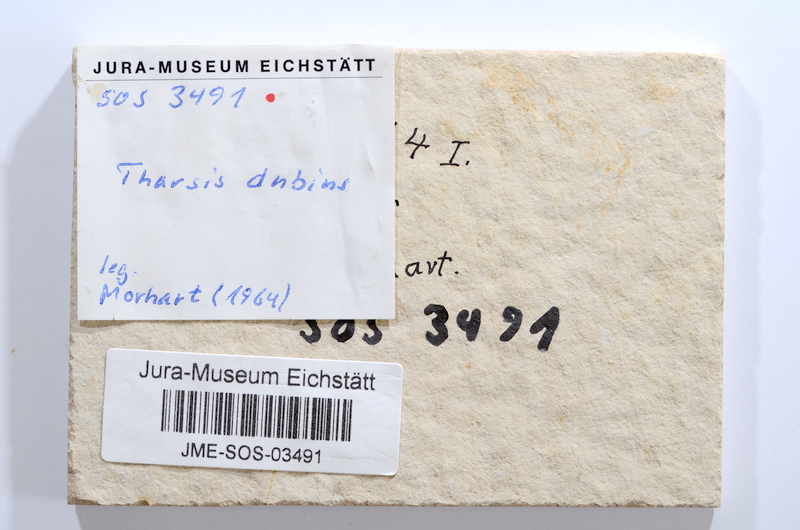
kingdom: Animalia
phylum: Chordata
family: Ascalaboidae
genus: Tharsis
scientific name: Tharsis dubius
